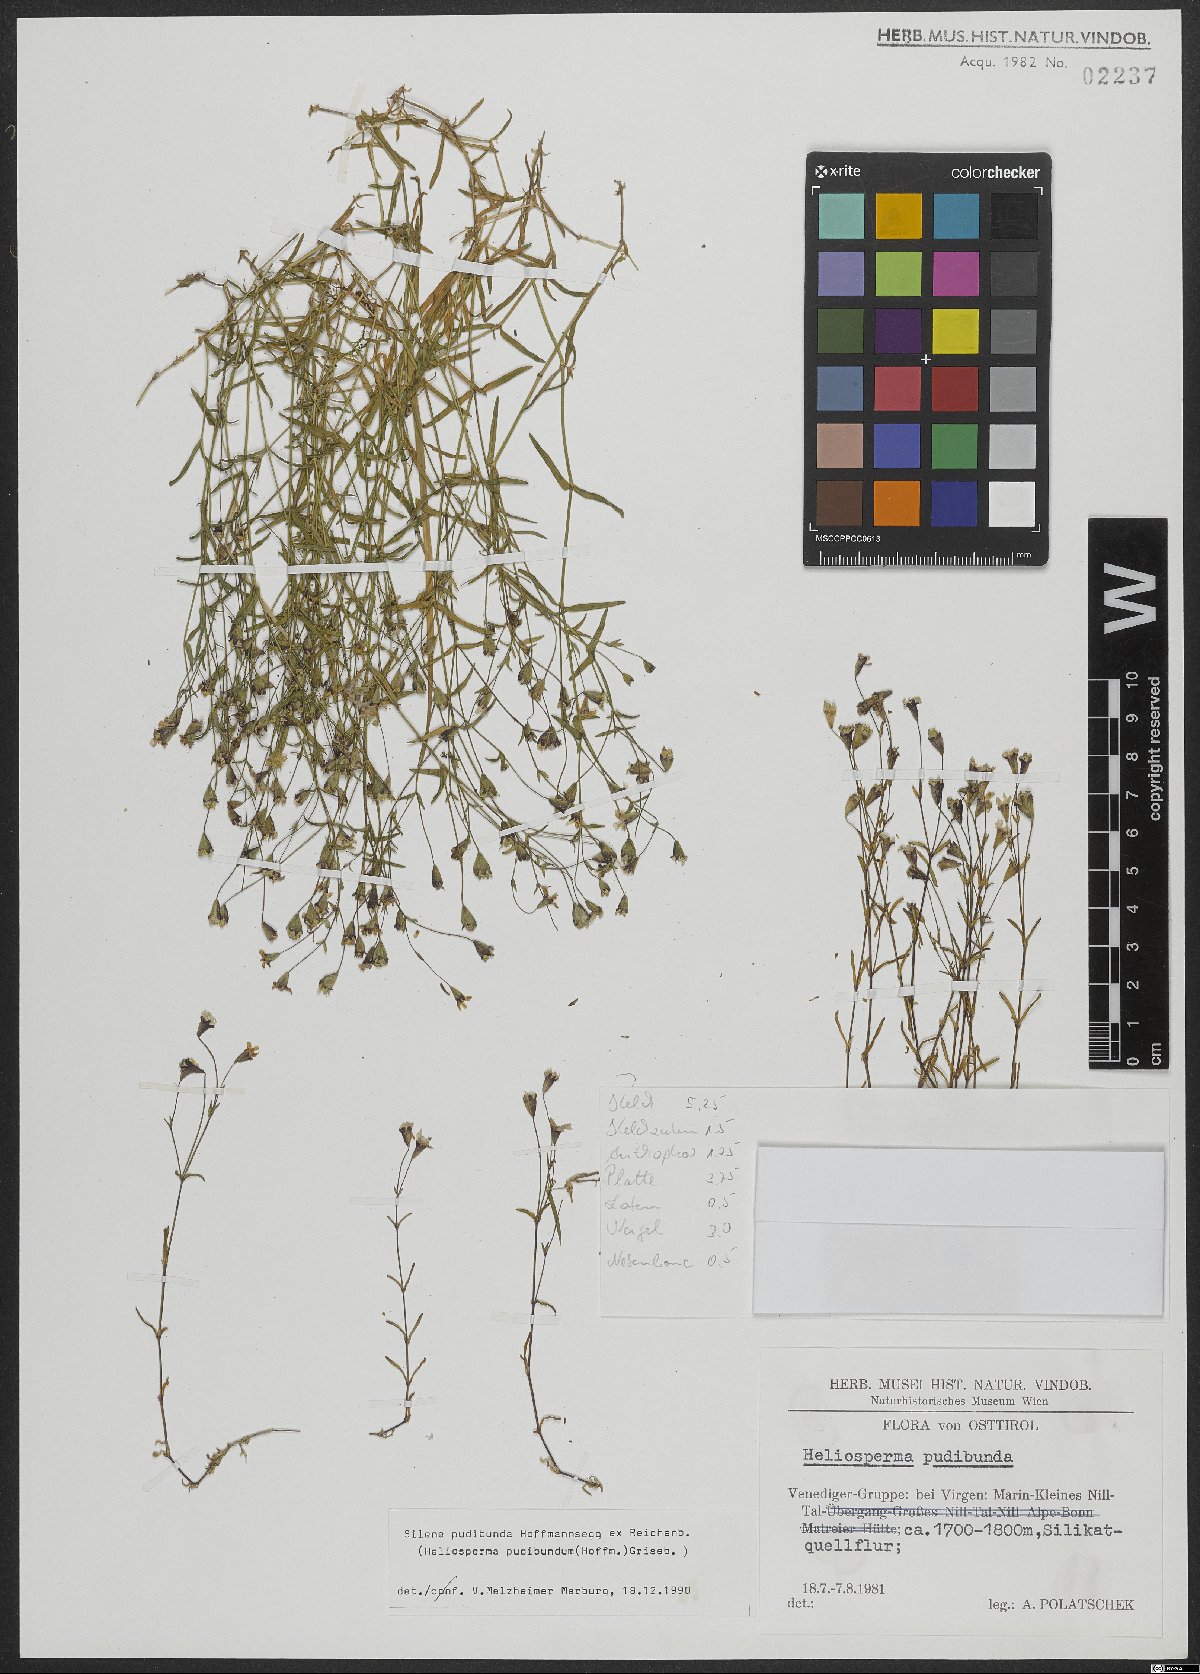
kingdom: Plantae
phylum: Tracheophyta
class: Magnoliopsida
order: Caryophyllales
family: Caryophyllaceae
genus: Heliosperma
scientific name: Heliosperma pudibundum
